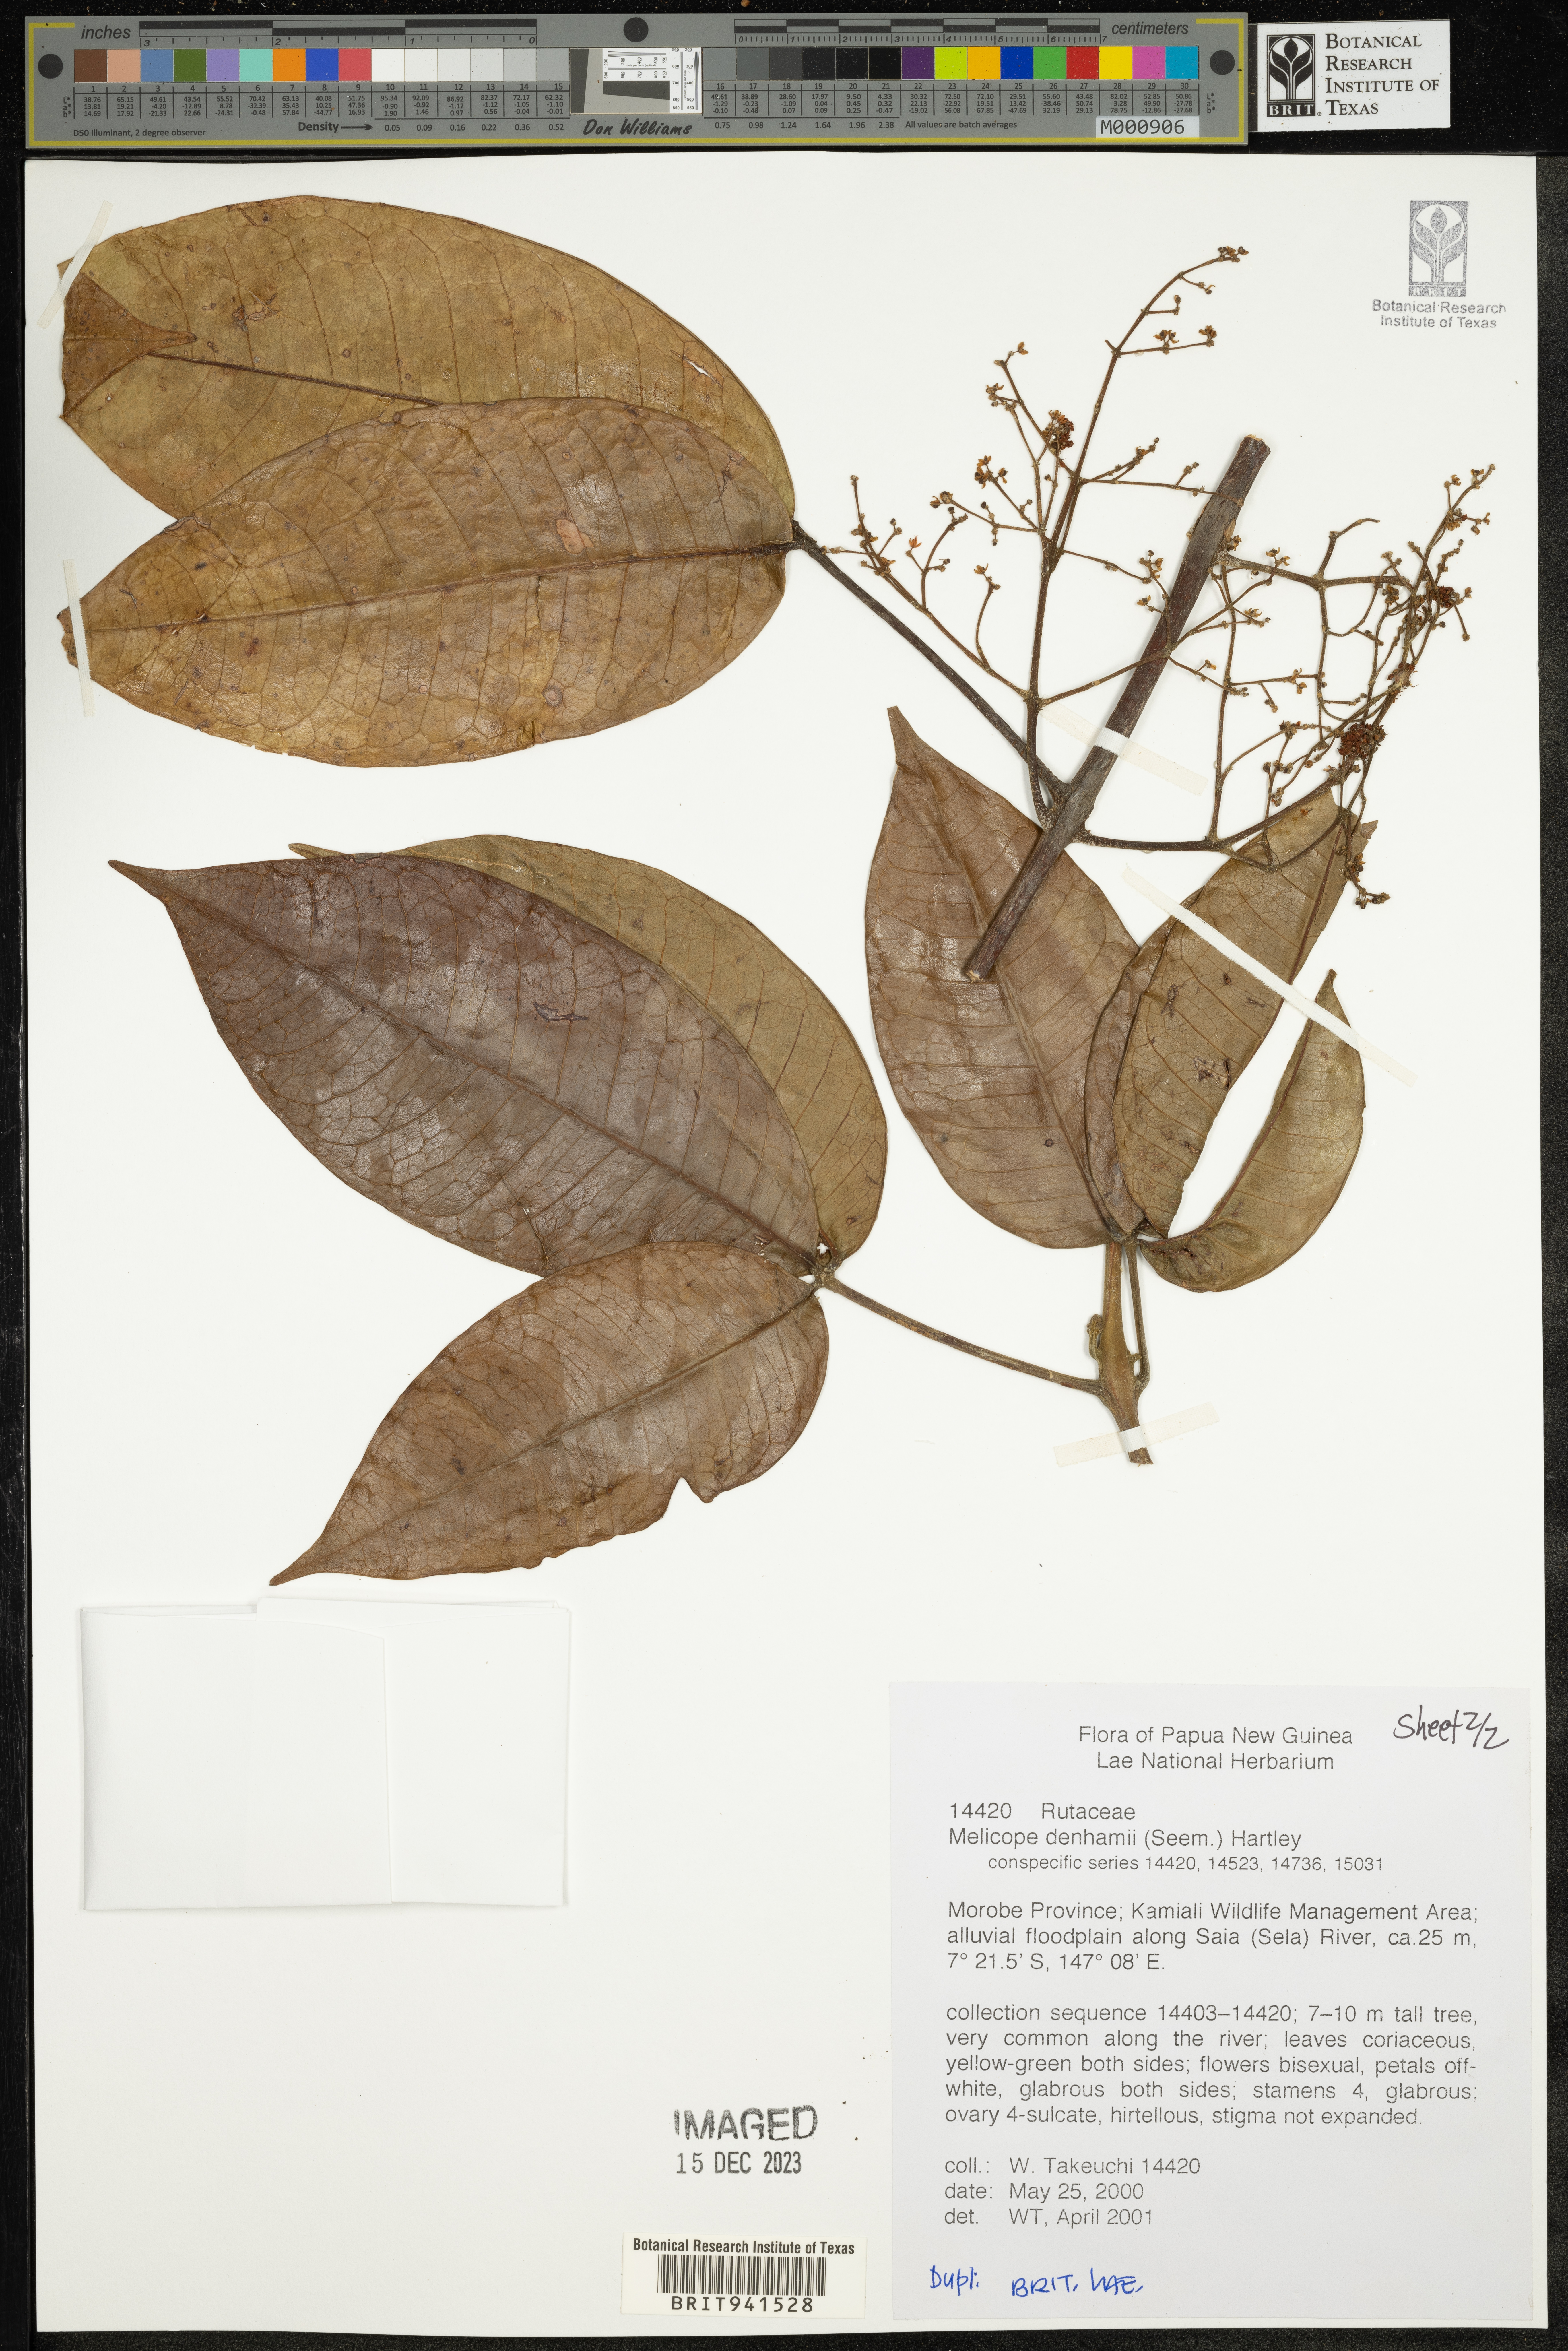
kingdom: Plantae
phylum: Tracheophyta
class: Magnoliopsida
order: Sapindales
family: Rutaceae
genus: Melicope
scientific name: Melicope
